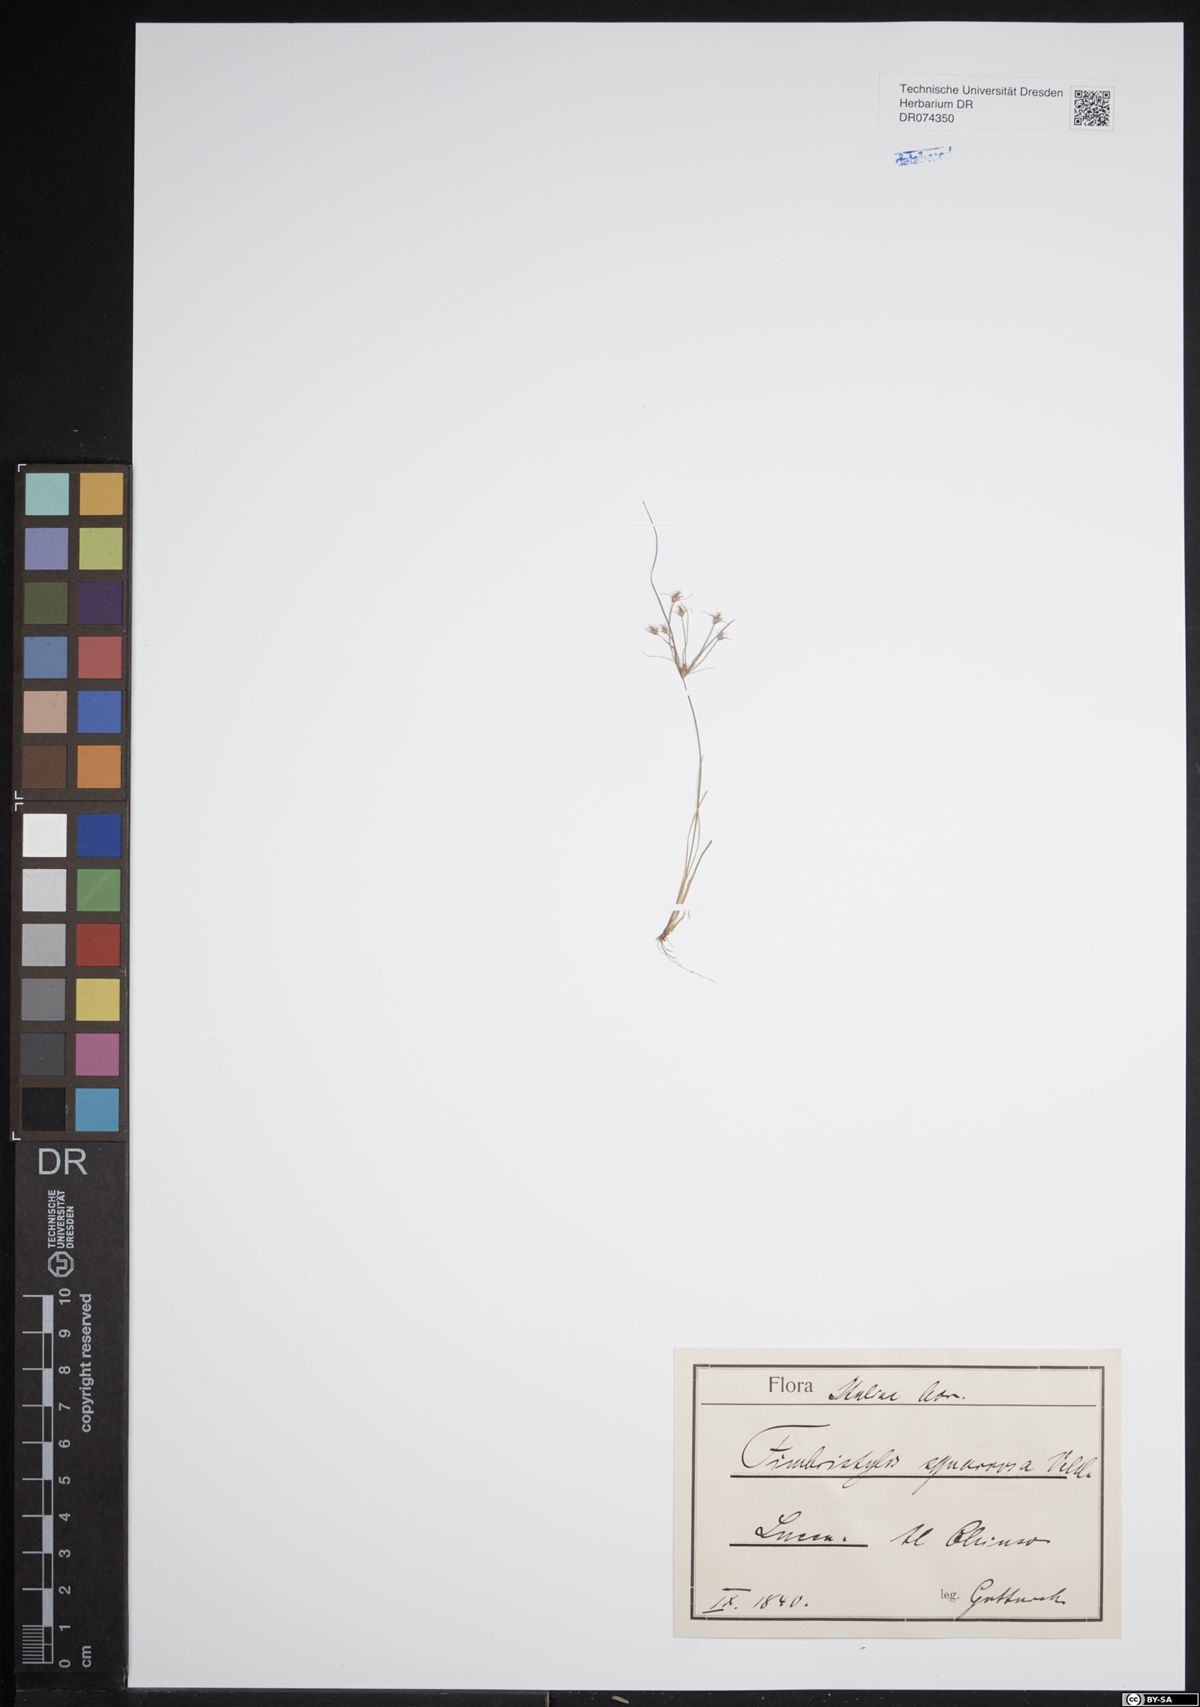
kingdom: Plantae
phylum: Tracheophyta
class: Liliopsida
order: Poales
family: Cyperaceae
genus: Fimbristylis
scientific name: Fimbristylis squarrosa
